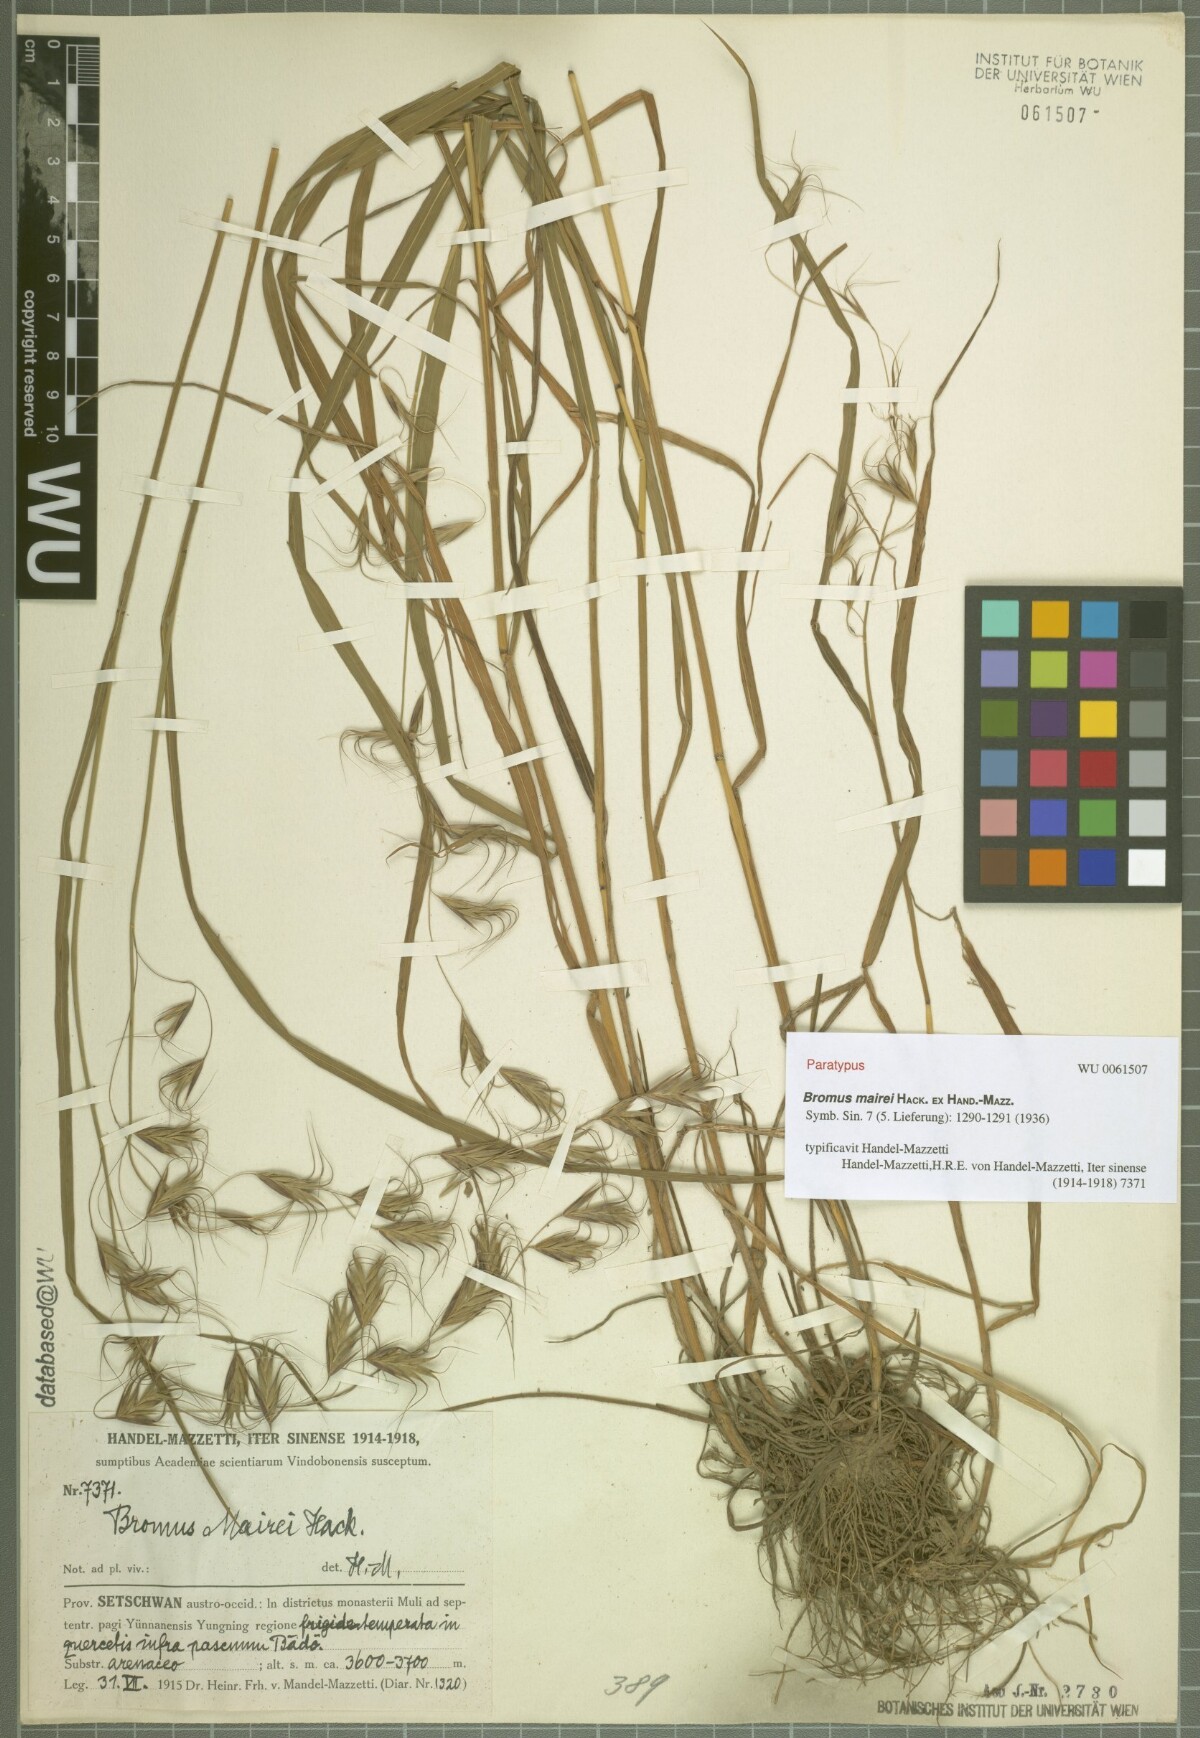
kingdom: Plantae
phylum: Tracheophyta
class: Liliopsida
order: Poales
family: Poaceae
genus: Bromus
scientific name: Bromus mairei
